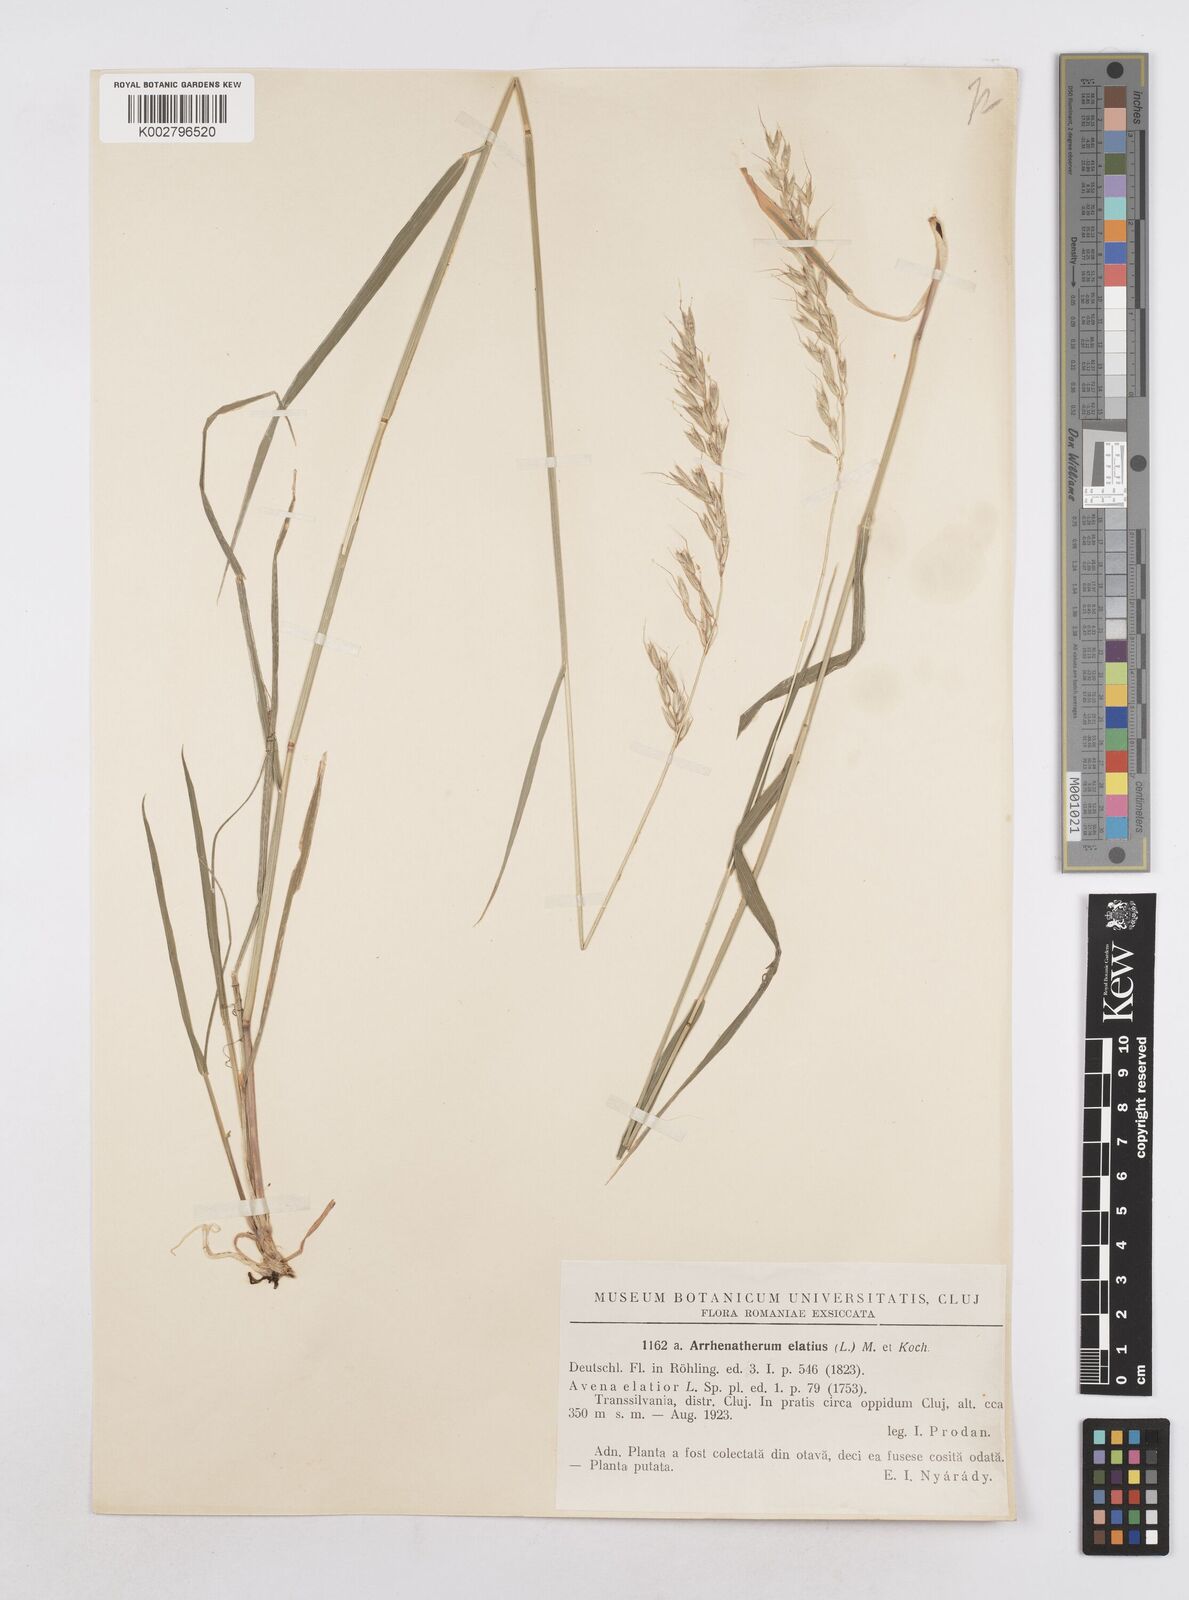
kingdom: Plantae
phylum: Tracheophyta
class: Liliopsida
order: Poales
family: Poaceae
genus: Arrhenatherum
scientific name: Arrhenatherum elatius
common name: Tall oatgrass
